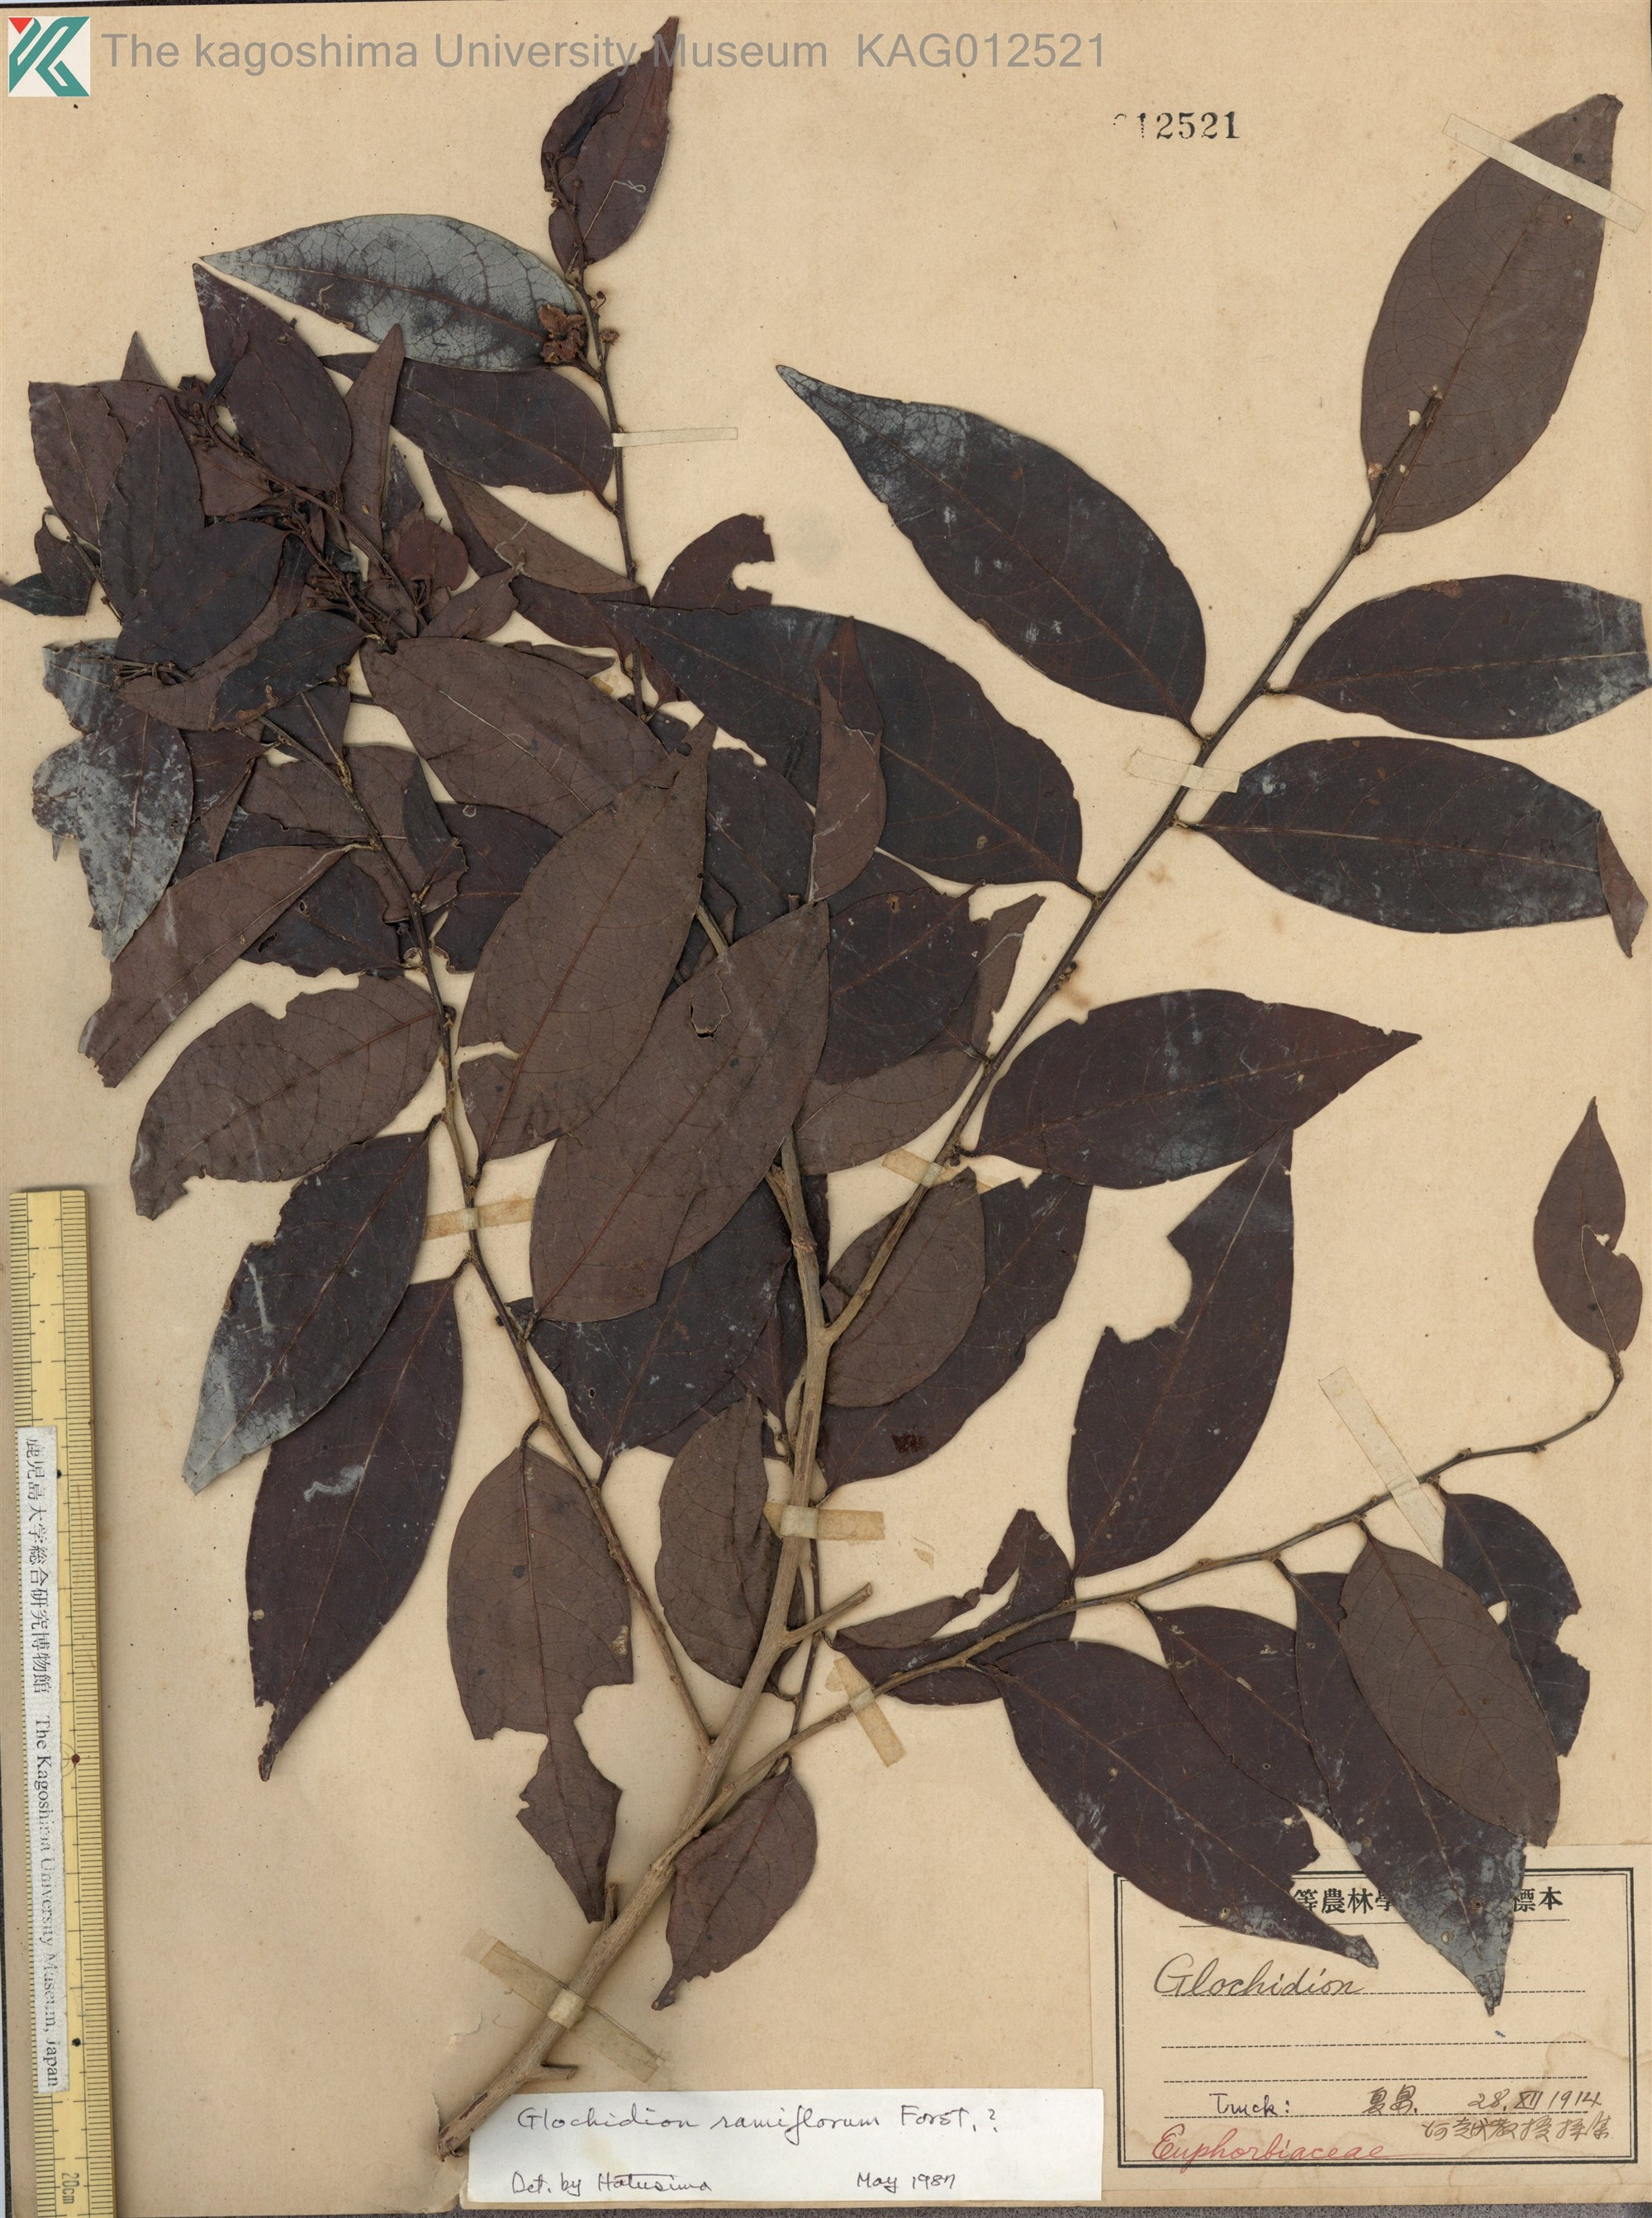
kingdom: Plantae
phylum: Tracheophyta
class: Magnoliopsida
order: Malpighiales
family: Phyllanthaceae
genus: Glochidion
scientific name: Glochidion ramiflorum
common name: Masame
